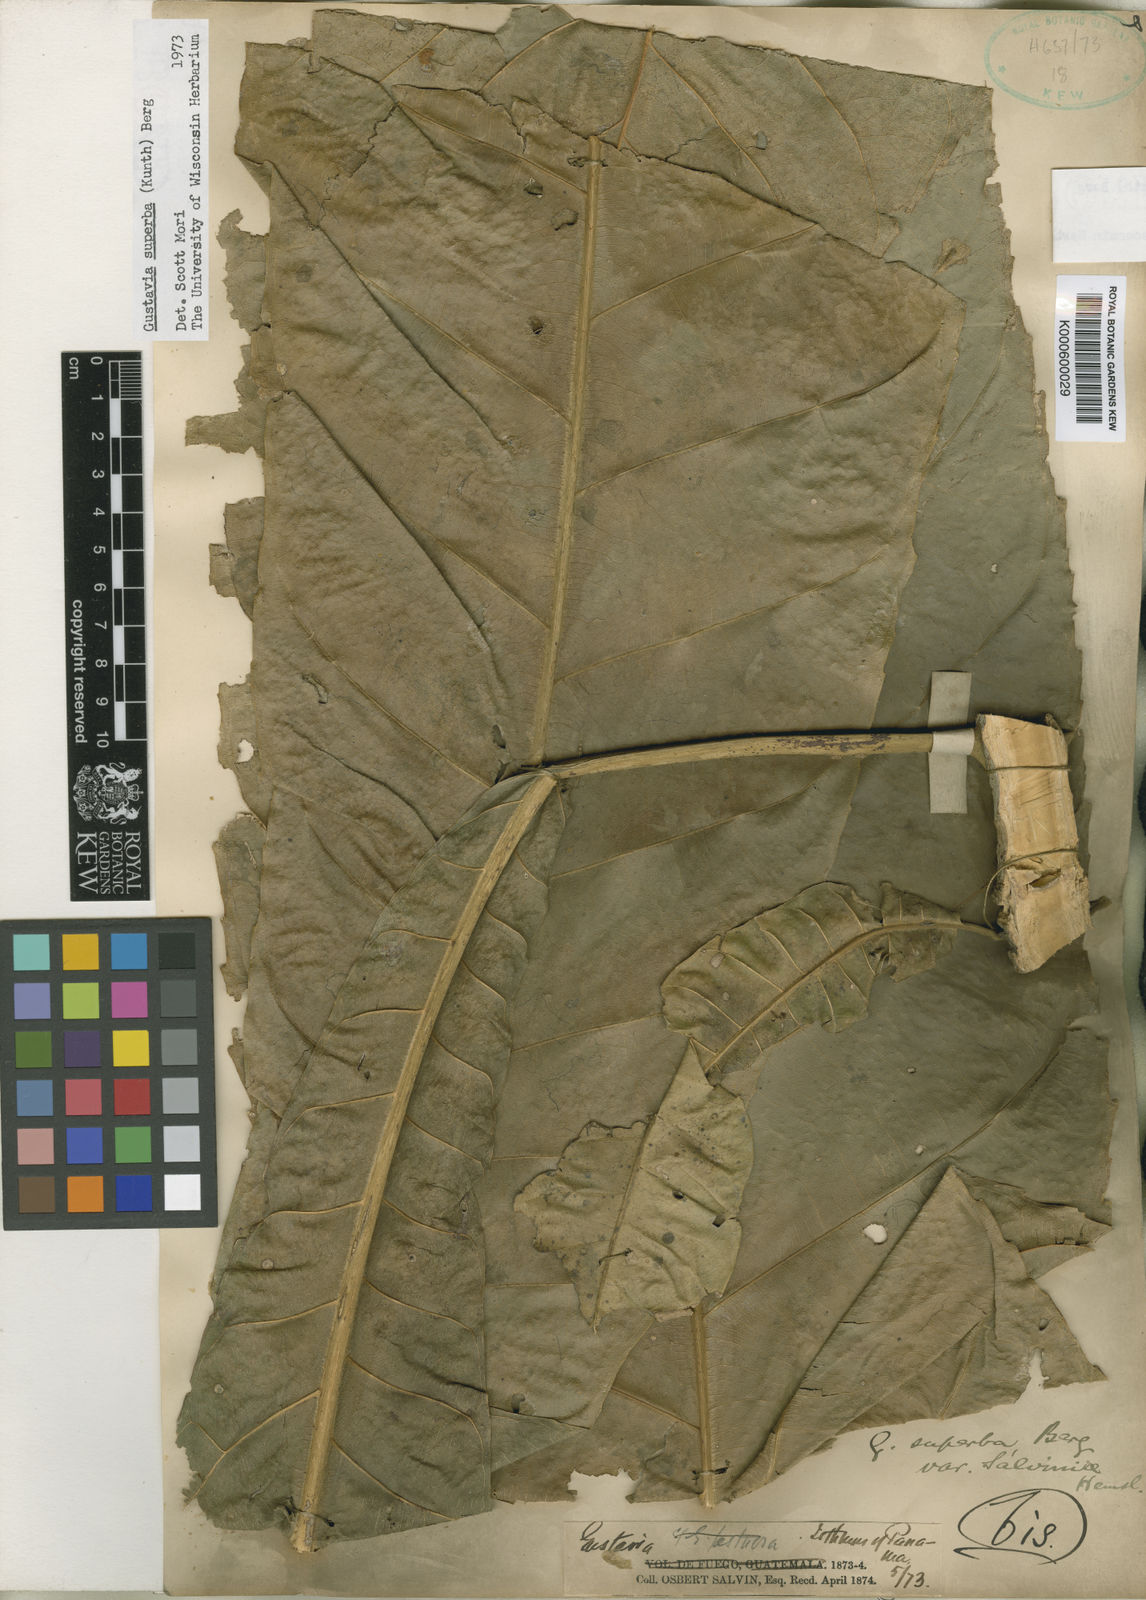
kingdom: Plantae
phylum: Tracheophyta
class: Magnoliopsida
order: Ericales
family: Lecythidaceae
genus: Gustavia
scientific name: Gustavia superba
